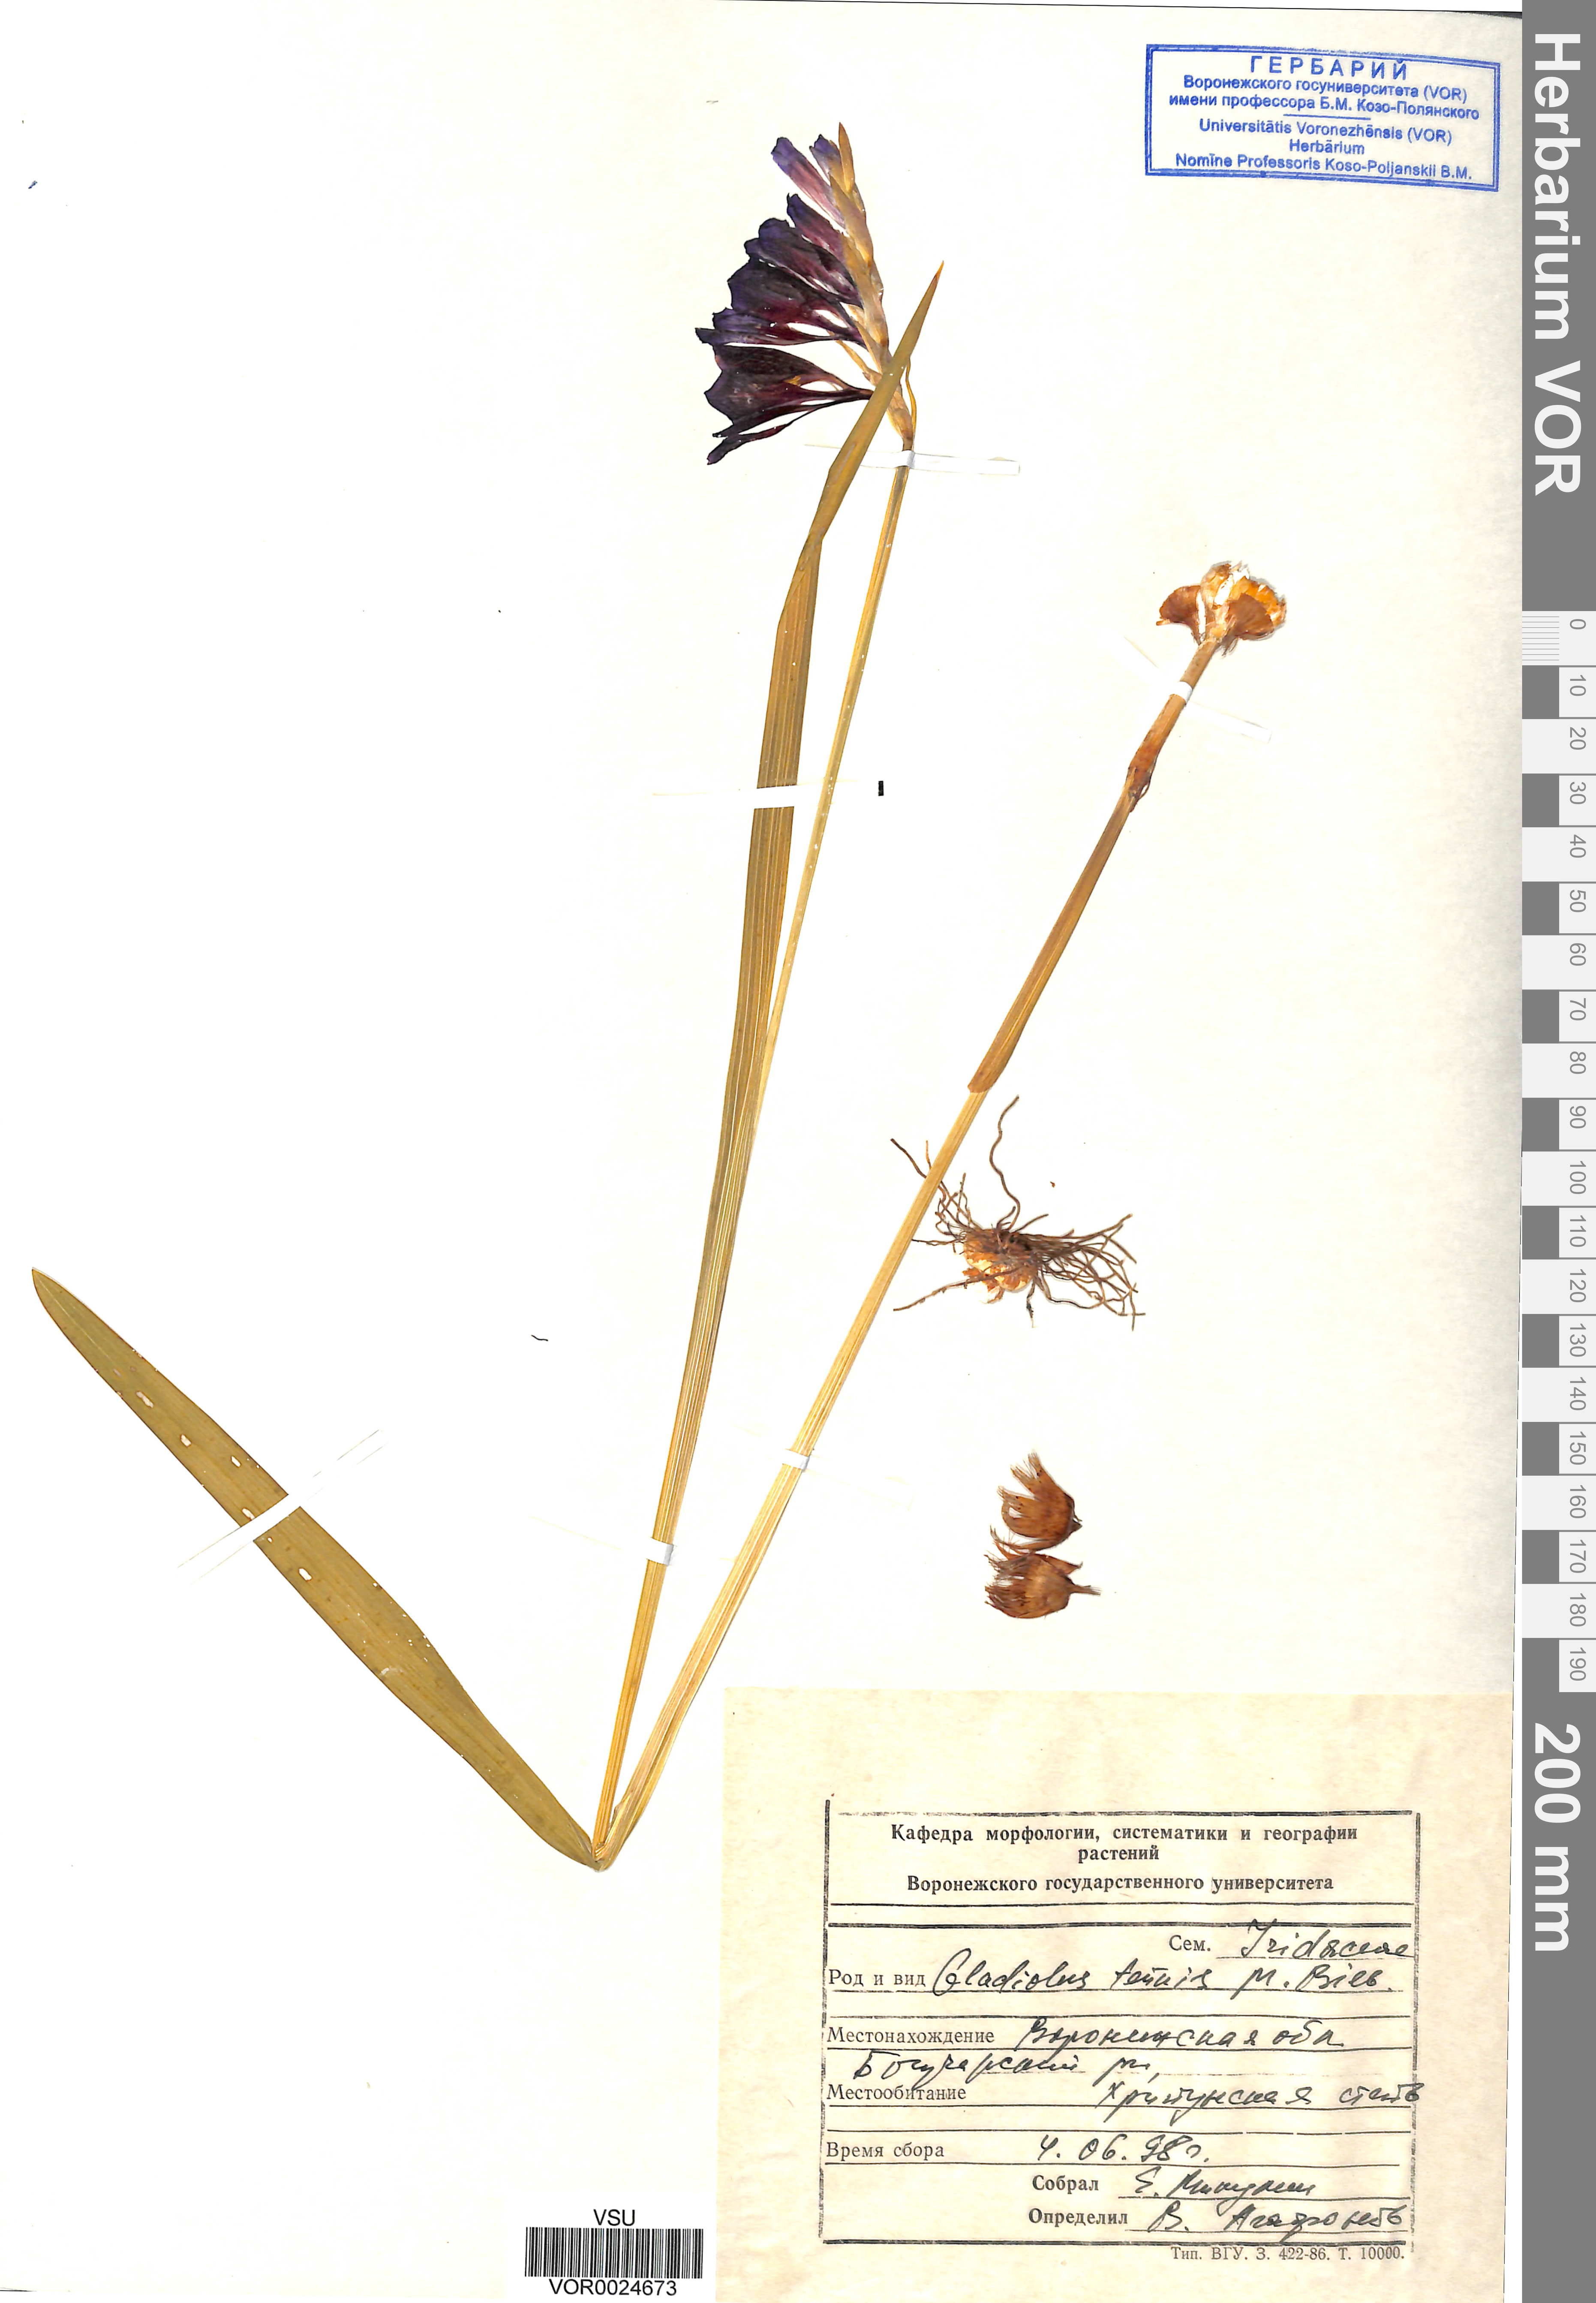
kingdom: Plantae
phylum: Tracheophyta
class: Liliopsida
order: Asparagales
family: Iridaceae
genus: Gladiolus
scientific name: Gladiolus tenuis
